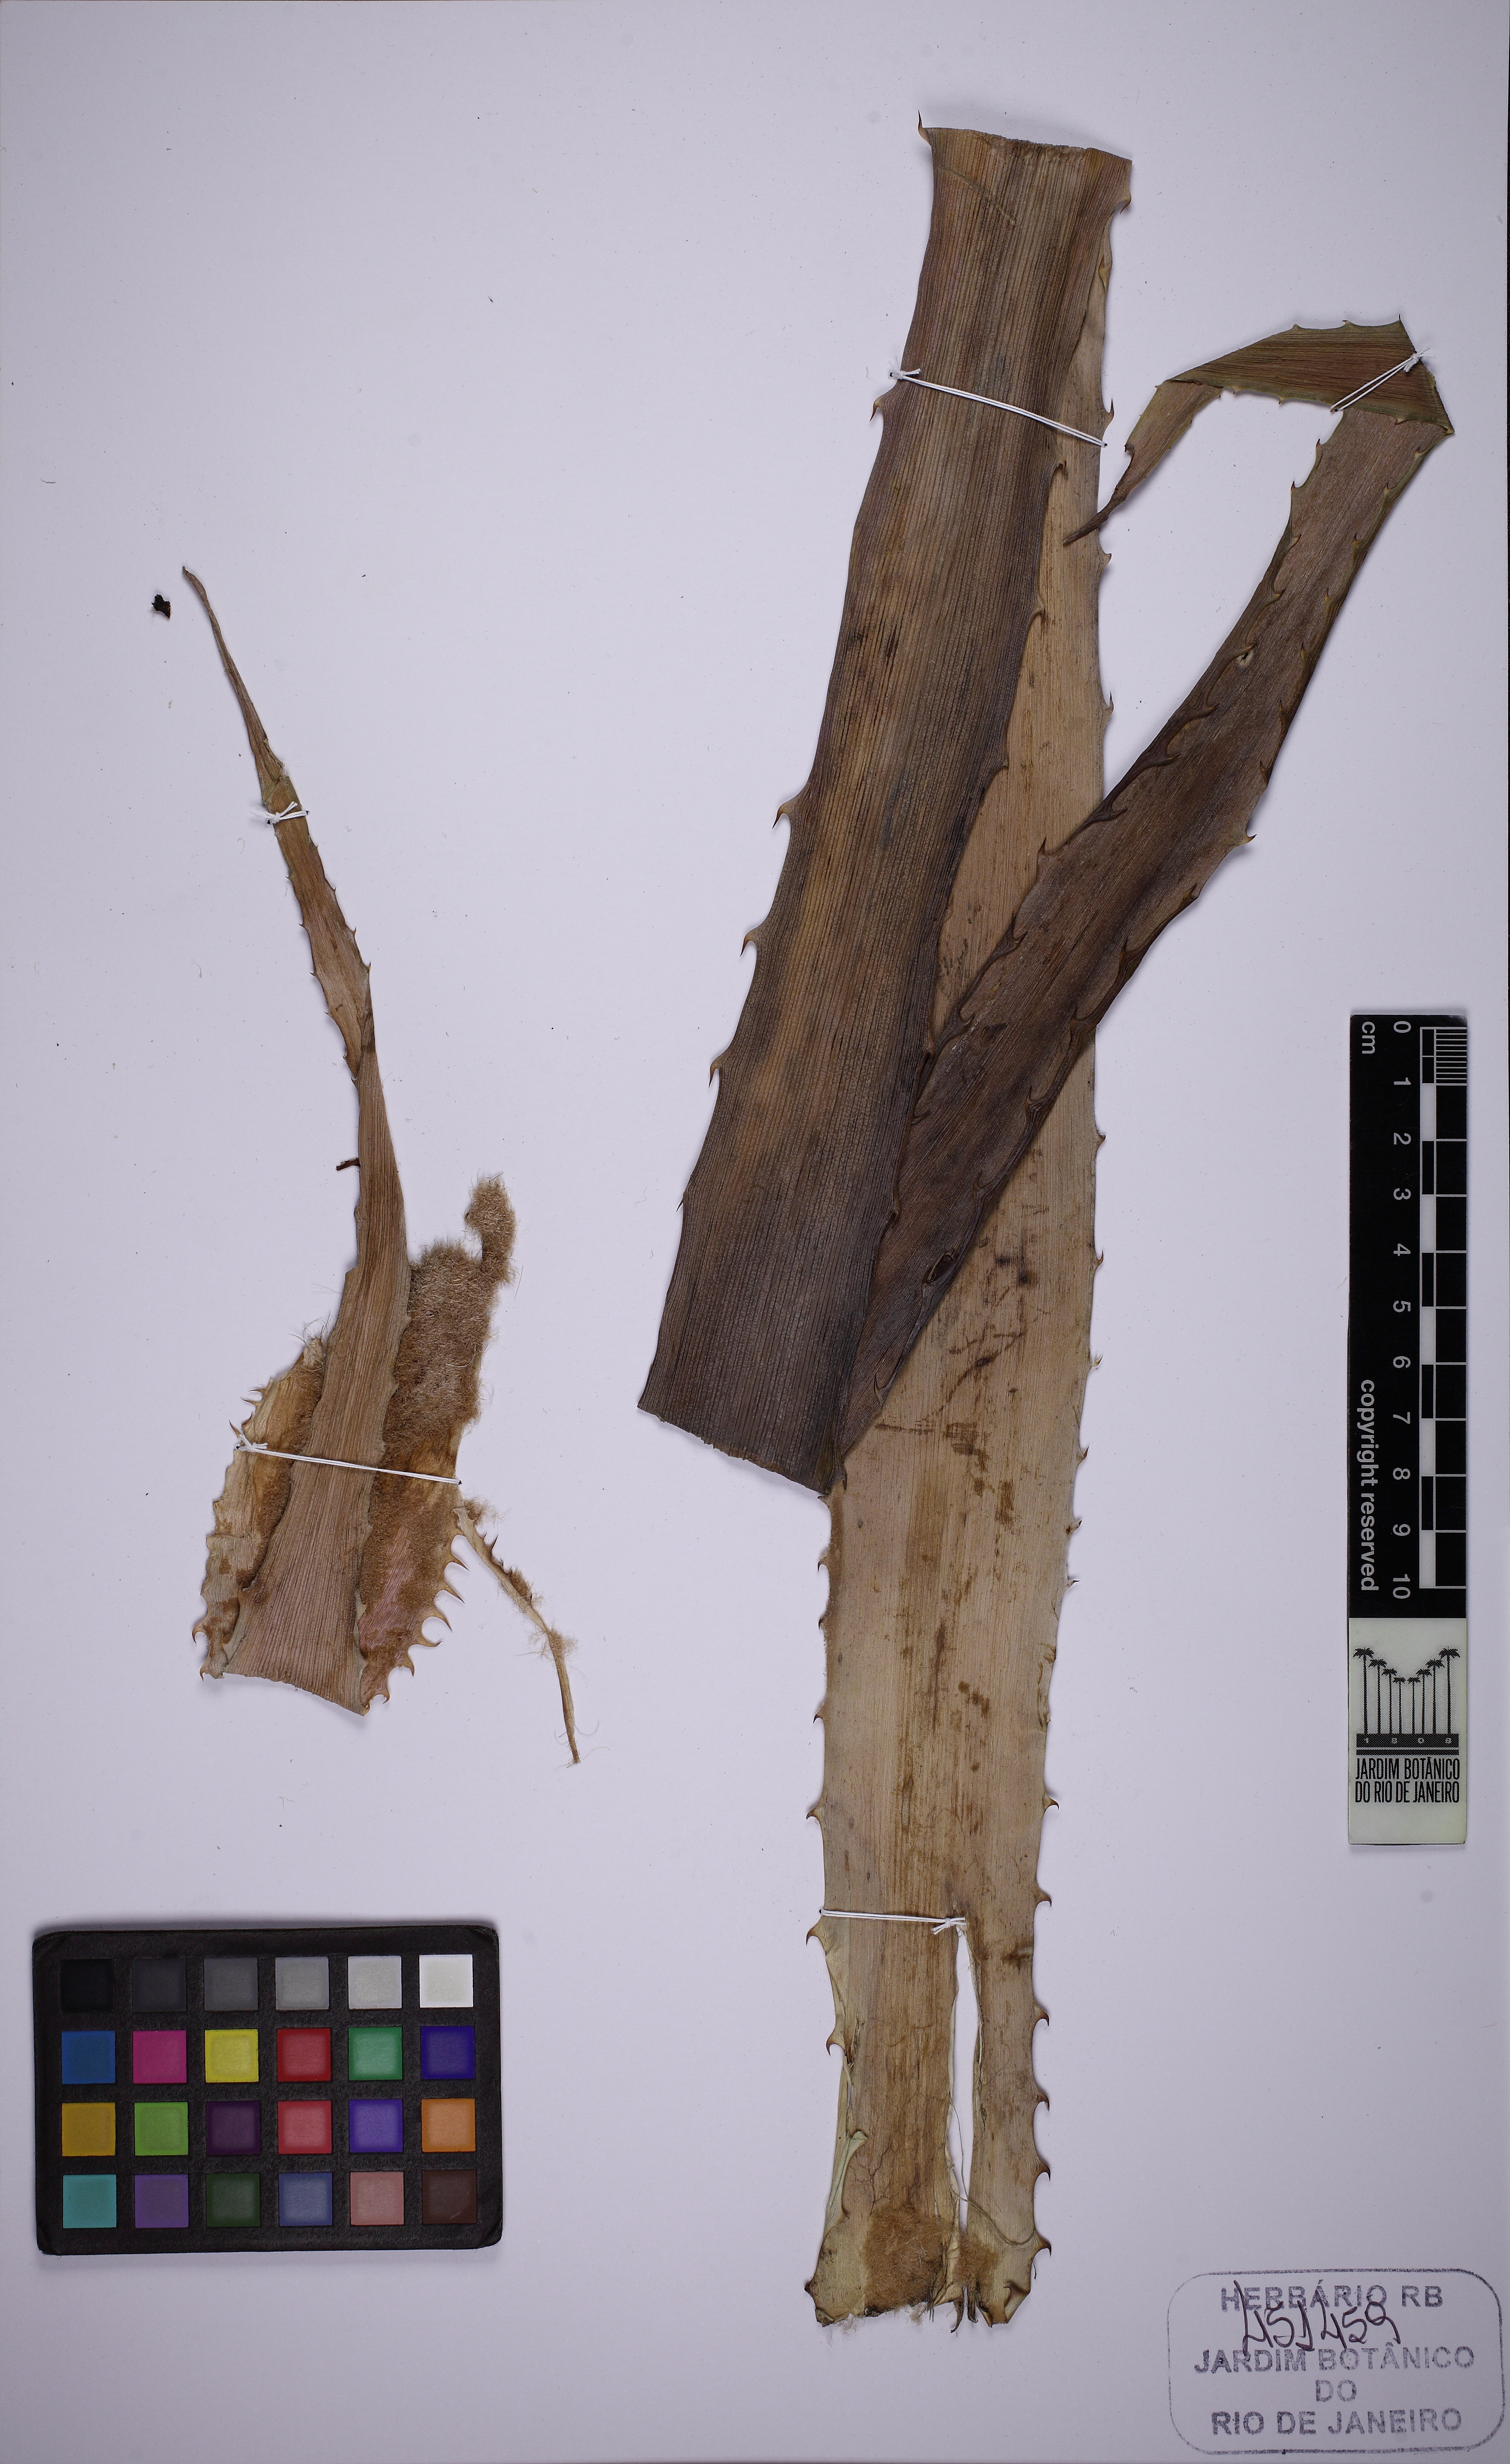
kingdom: Plantae
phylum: Tracheophyta
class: Liliopsida
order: Poales
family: Bromeliaceae
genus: Bromelia
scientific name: Bromelia magnifica
